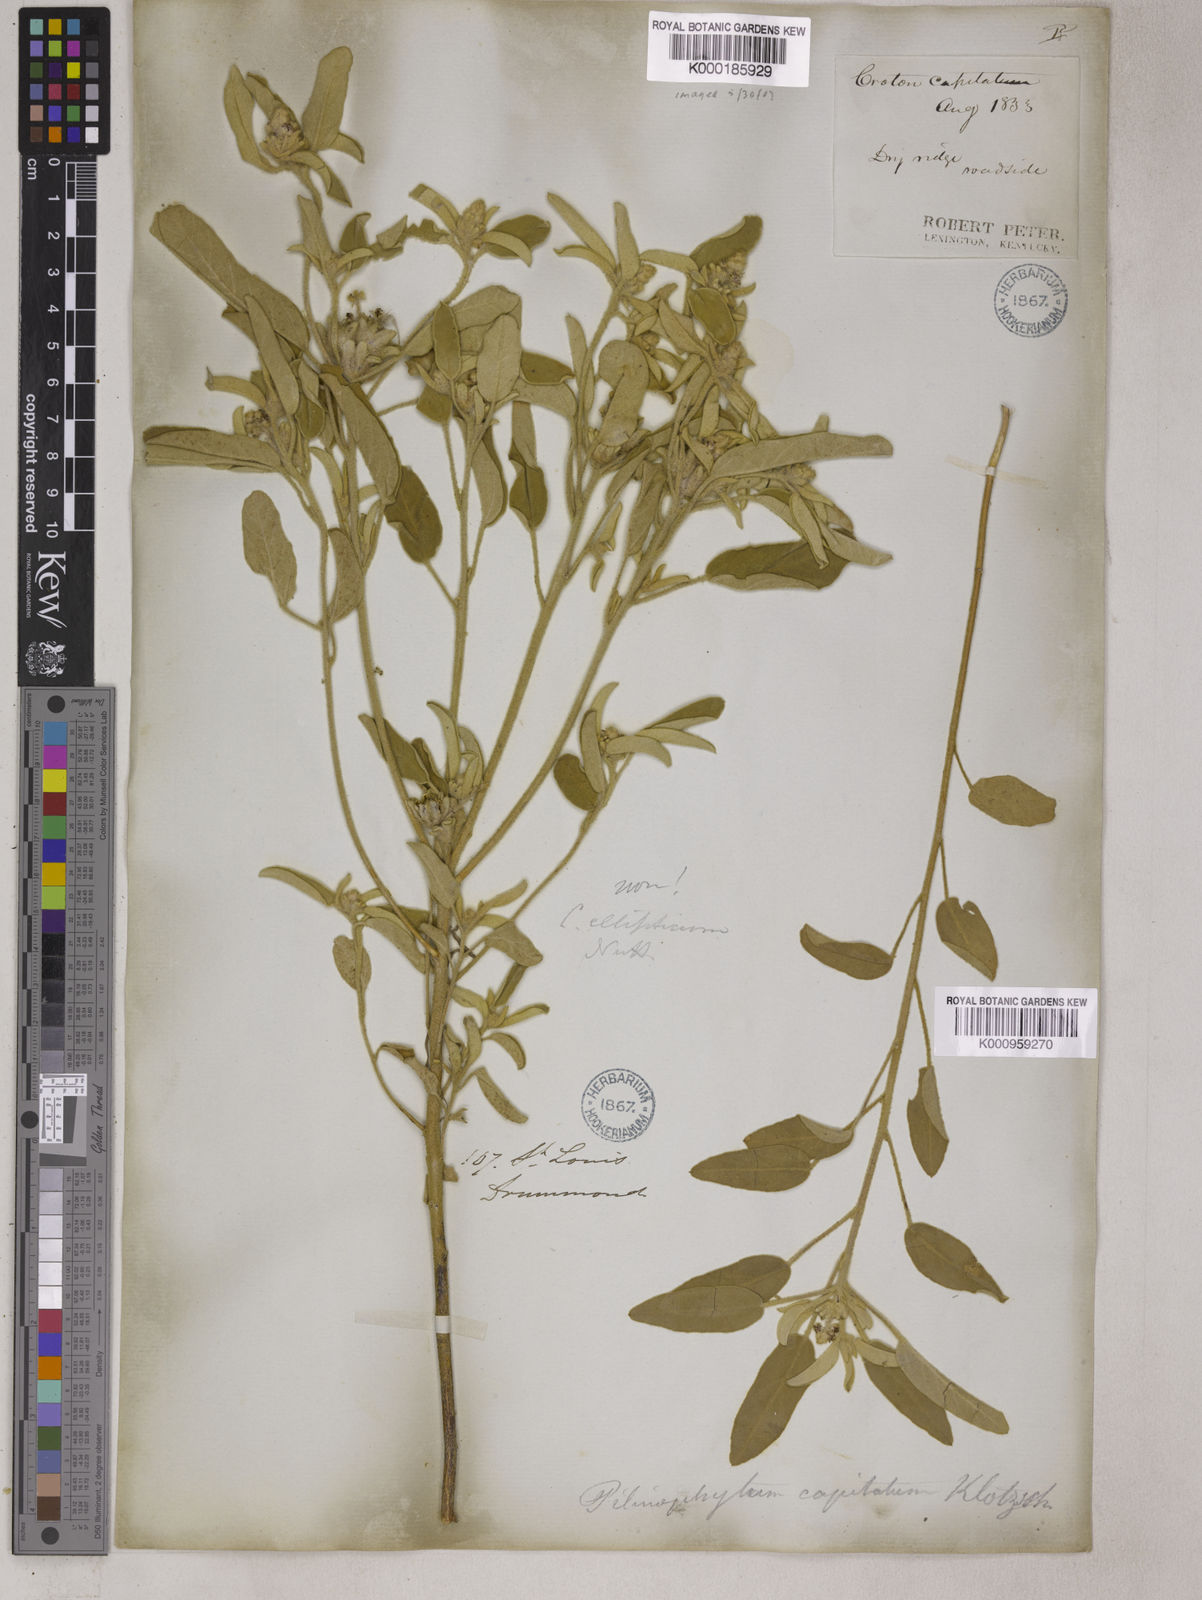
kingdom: Plantae
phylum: Tracheophyta
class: Magnoliopsida
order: Malpighiales
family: Euphorbiaceae
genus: Croton
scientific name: Croton capitatus
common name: Woolly croton
